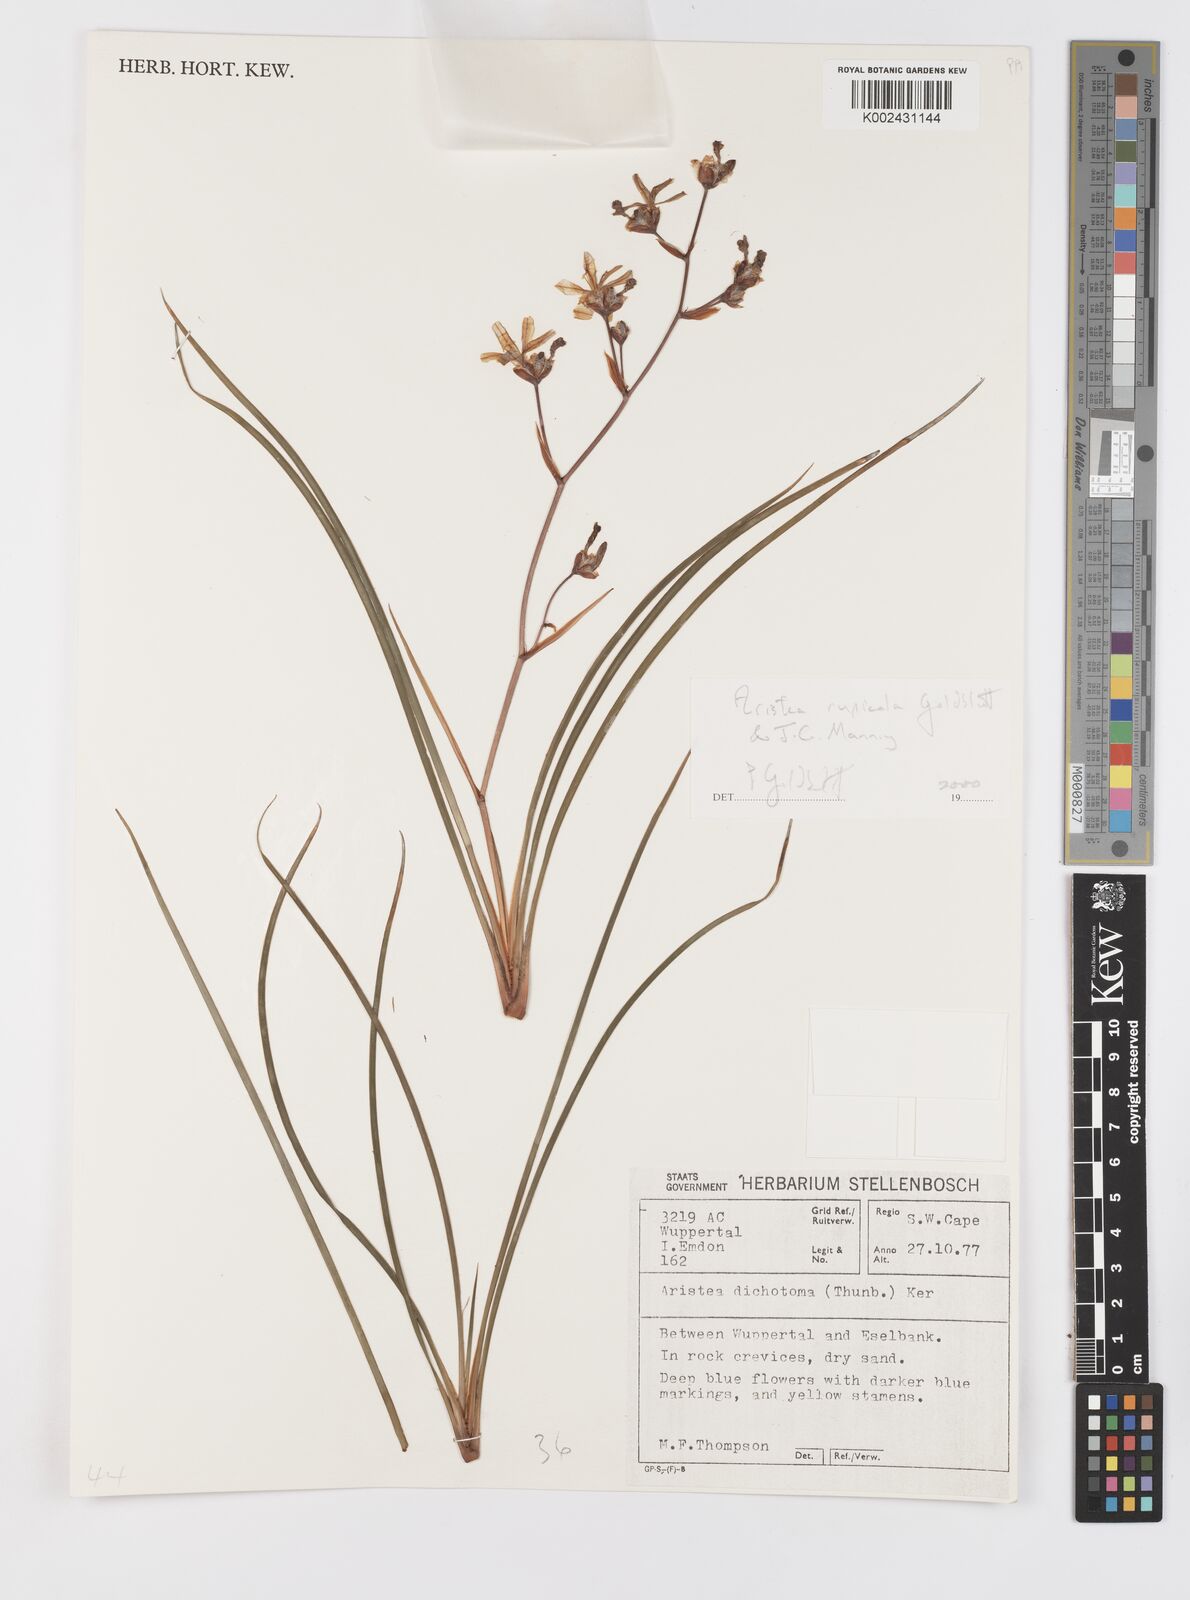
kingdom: Plantae
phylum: Tracheophyta
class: Liliopsida
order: Asparagales
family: Iridaceae
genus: Aristea
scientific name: Aristea rupicola
